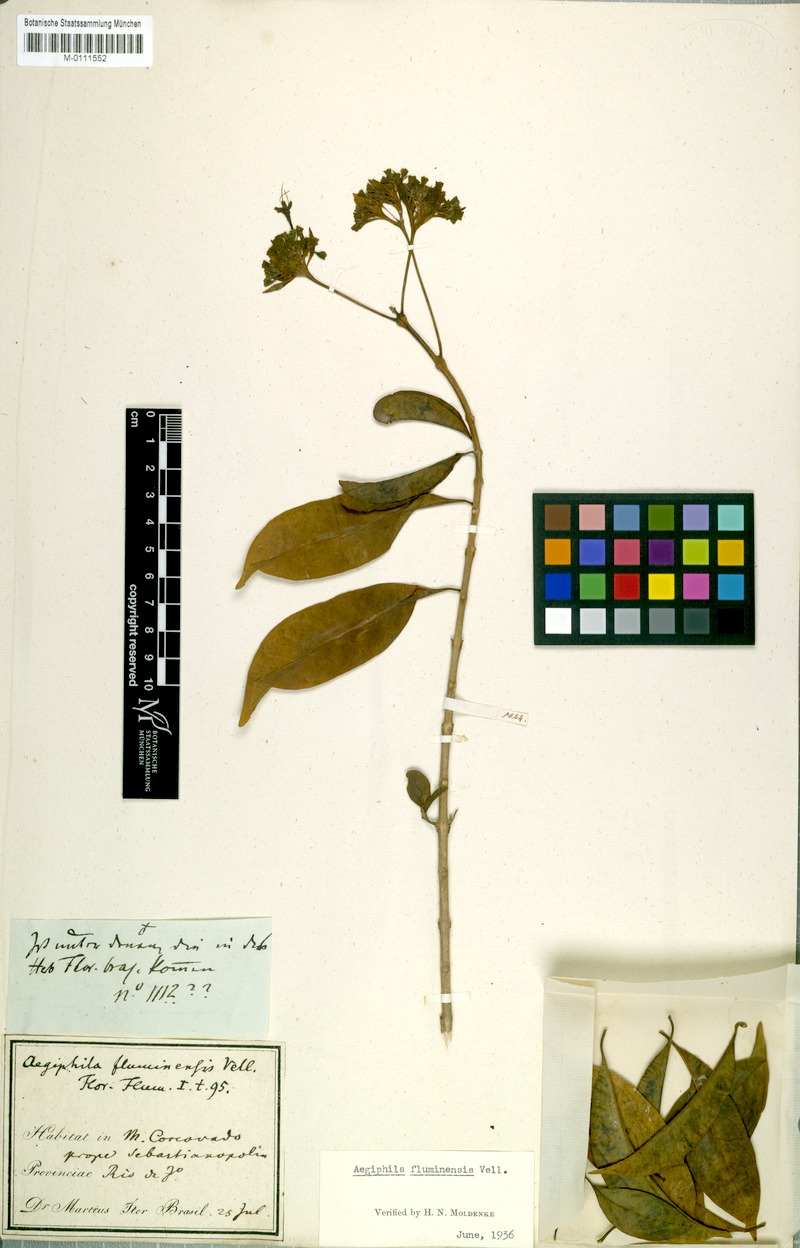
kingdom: Plantae
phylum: Tracheophyta
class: Magnoliopsida
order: Lamiales
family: Lamiaceae
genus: Aegiphila
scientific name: Aegiphila fluminensis
